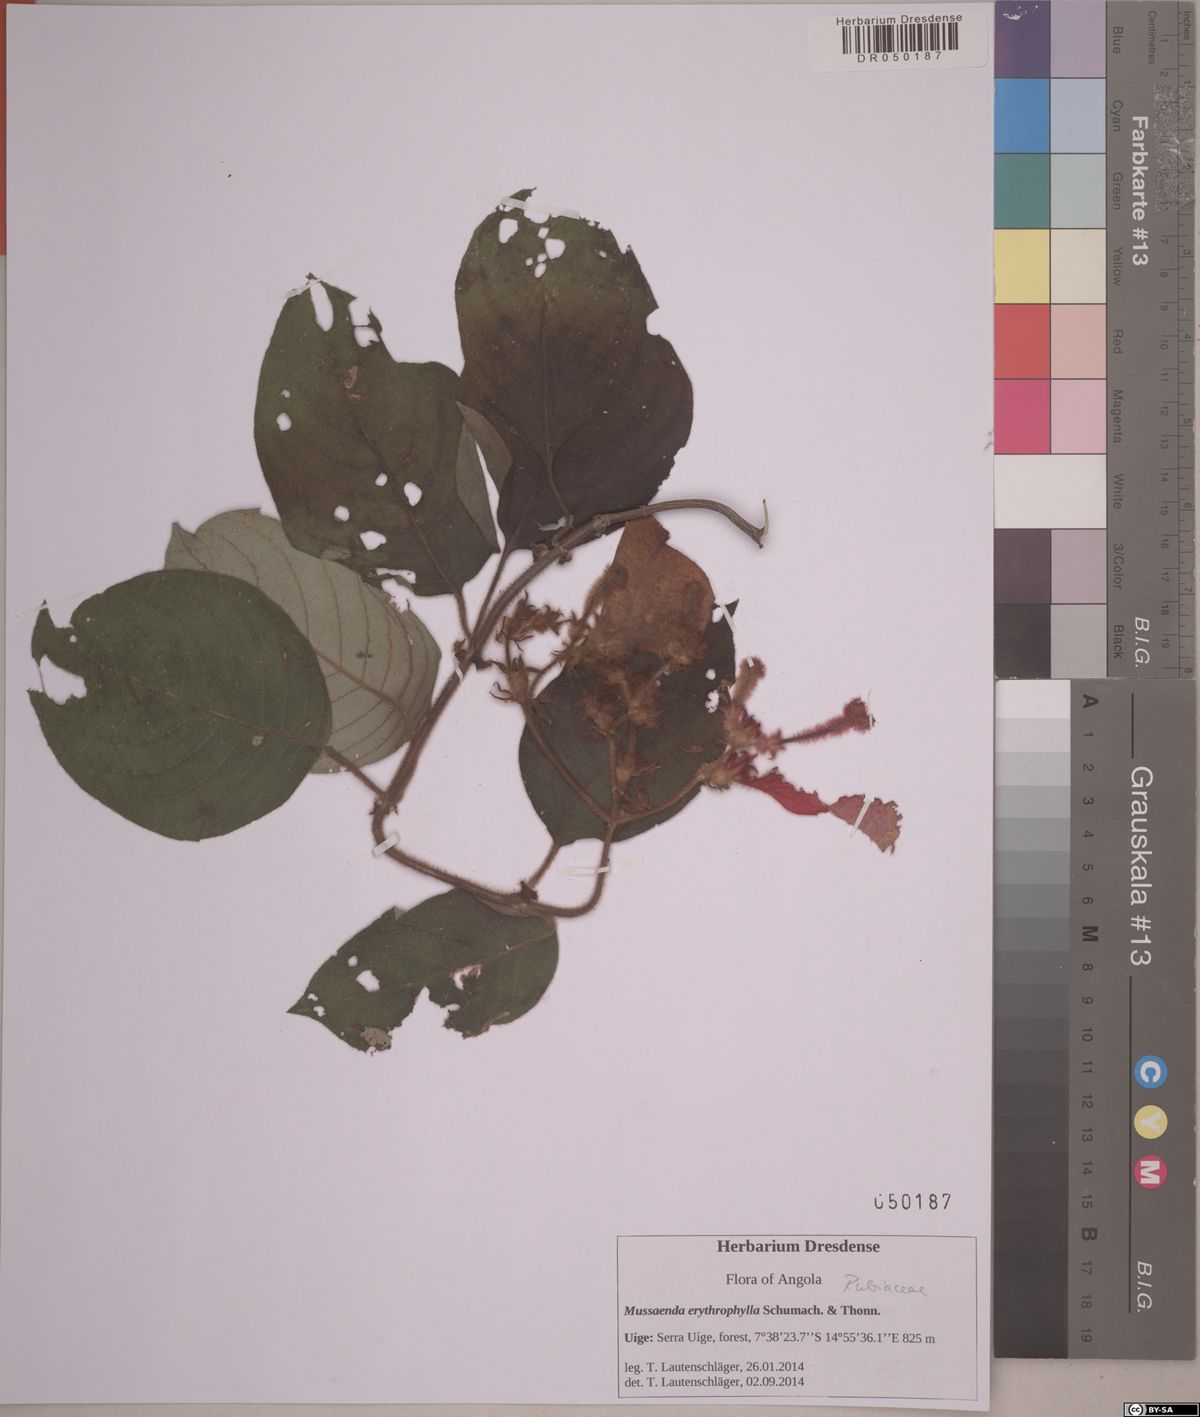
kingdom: Plantae
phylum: Tracheophyta
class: Magnoliopsida
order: Gentianales
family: Rubiaceae
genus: Mussaenda
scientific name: Mussaenda erythrophylla
